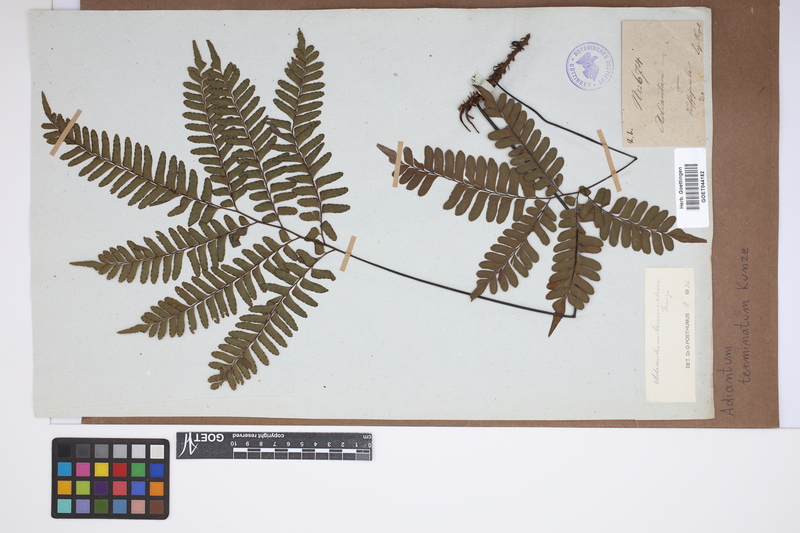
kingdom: Plantae
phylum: Tracheophyta
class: Polypodiopsida
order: Polypodiales
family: Pteridaceae
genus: Adiantum
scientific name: Adiantum terminatum
